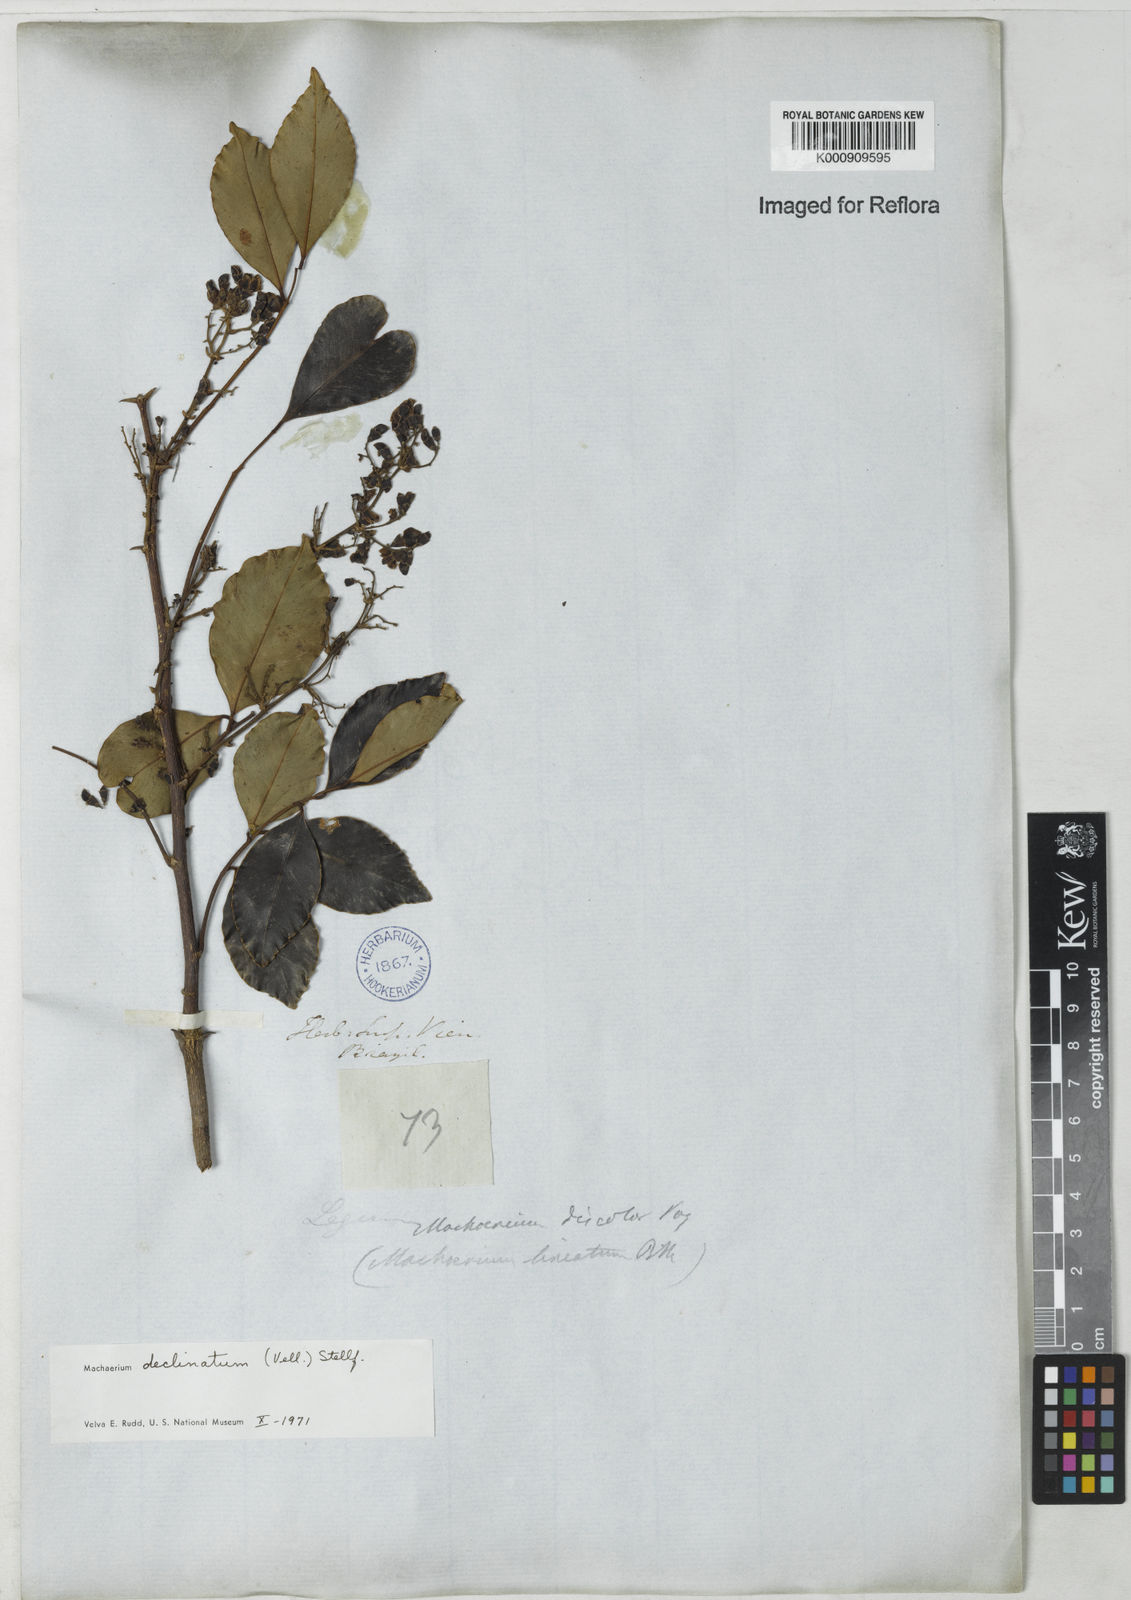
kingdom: Plantae
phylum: Tracheophyta
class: Magnoliopsida
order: Fabales
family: Fabaceae
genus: Machaerium
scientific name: Machaerium declinatum
